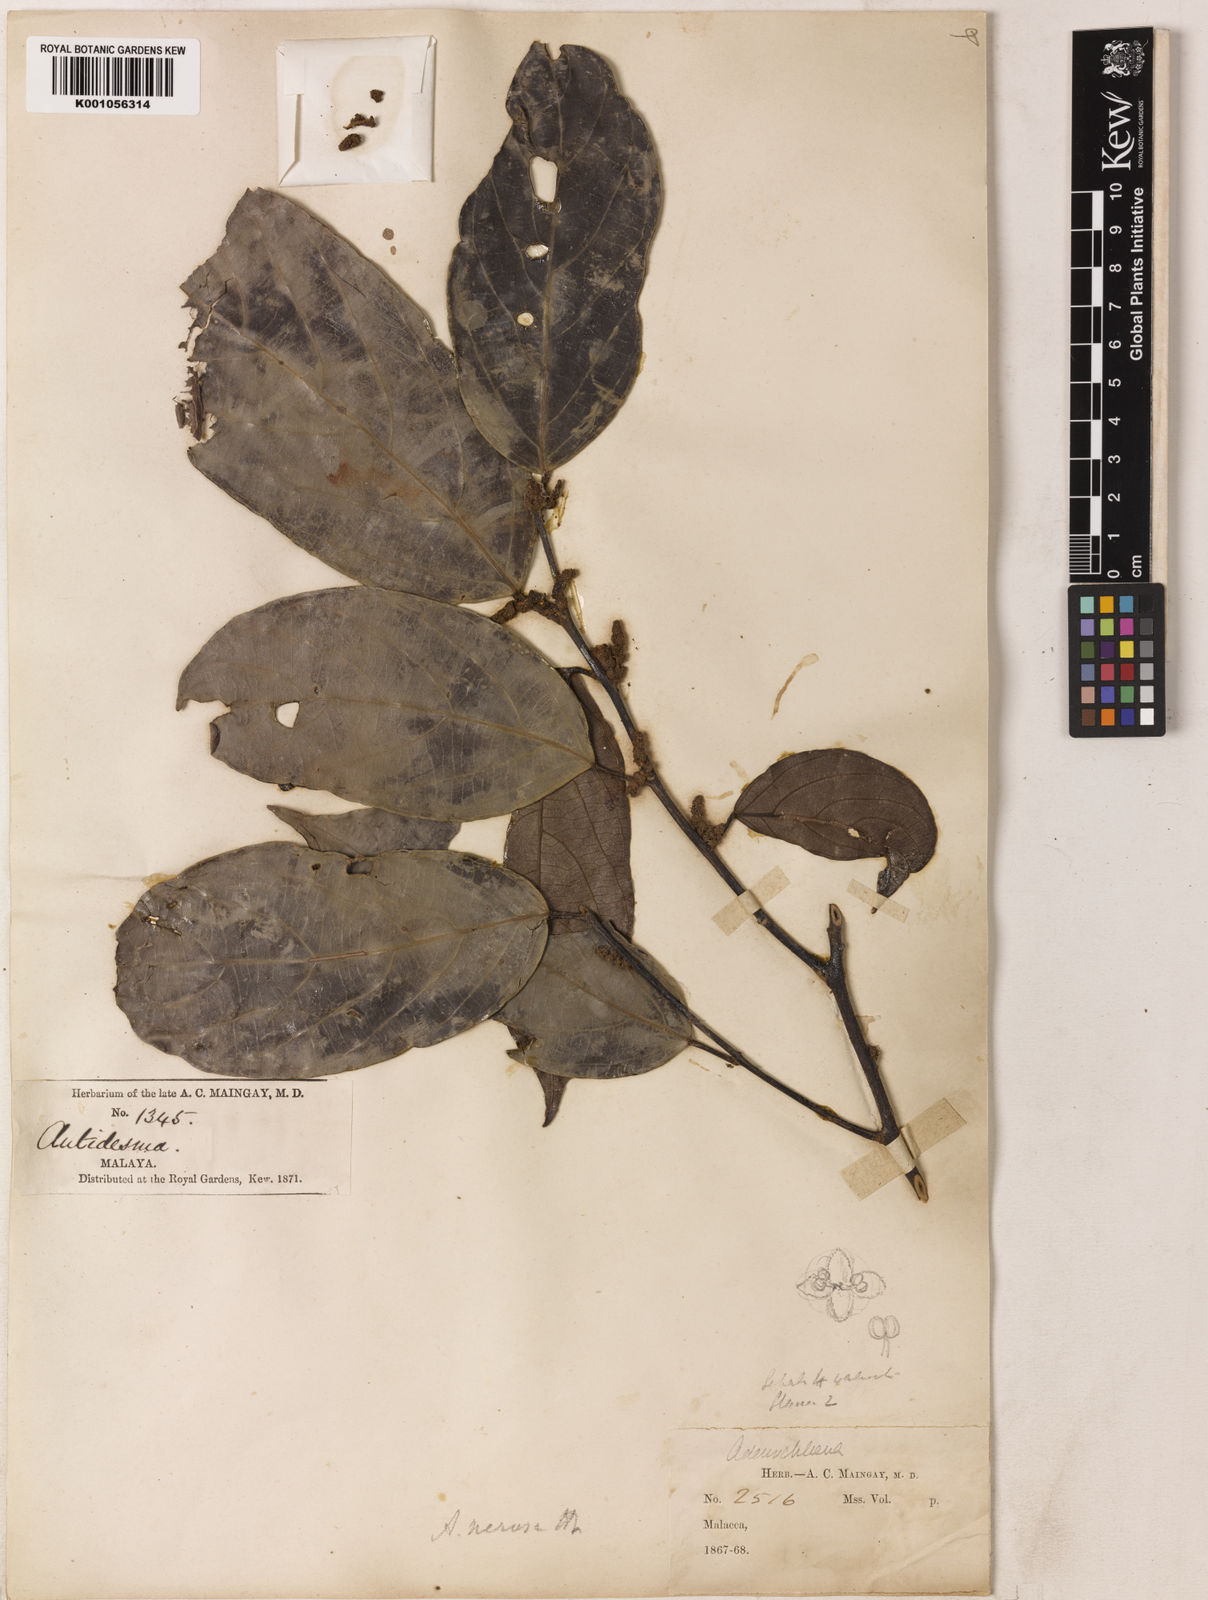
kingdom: Plantae
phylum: Tracheophyta
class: Magnoliopsida
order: Malpighiales
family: Phyllanthaceae
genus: Aporosa
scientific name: Aporosa nervosa
